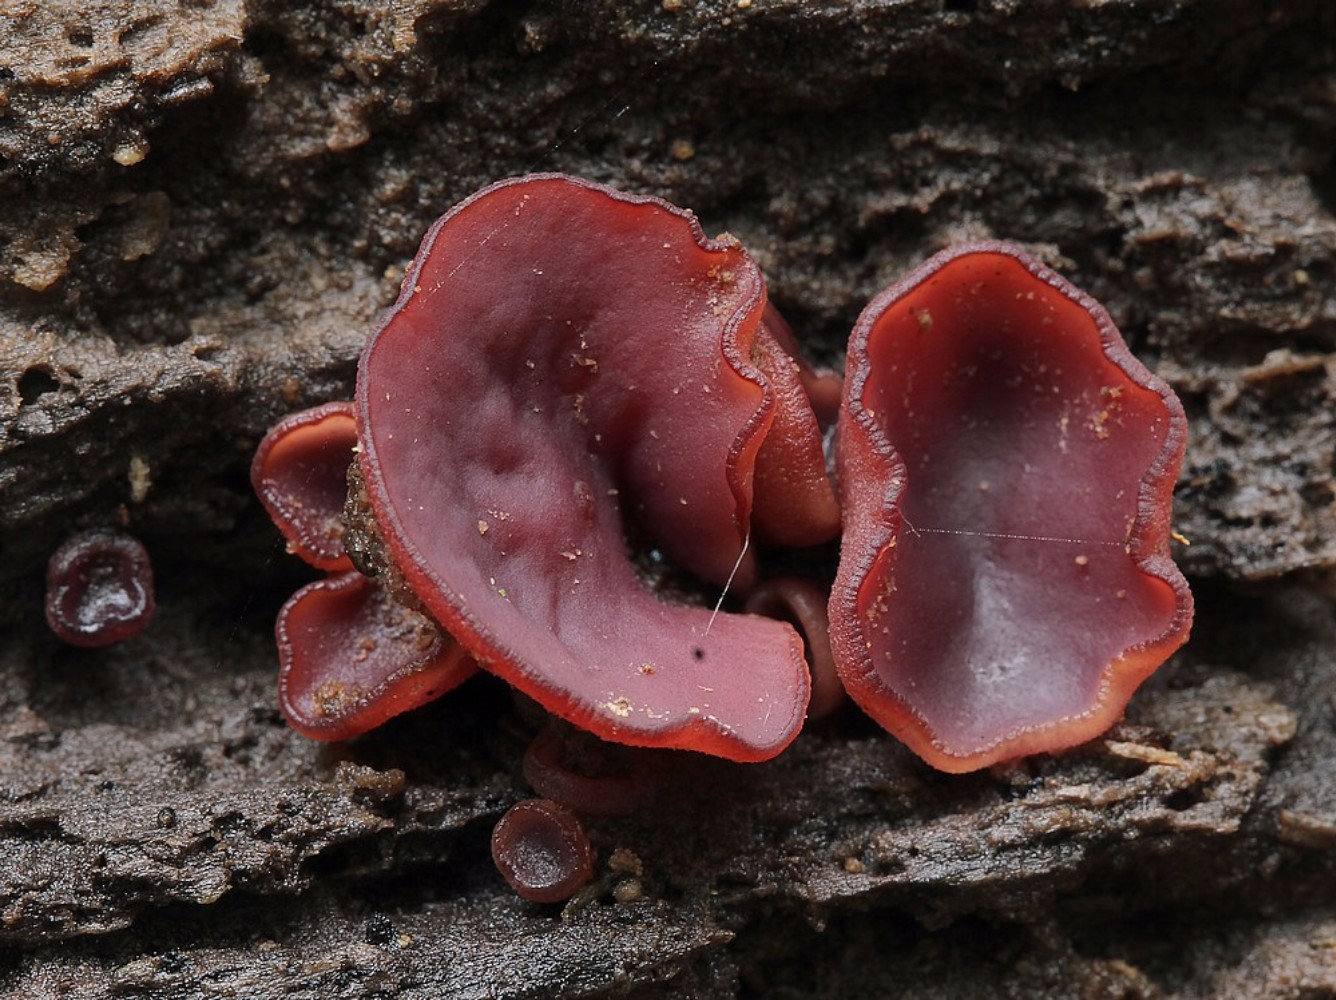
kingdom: Fungi
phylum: Ascomycota
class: Leotiomycetes
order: Helotiales
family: Gelatinodiscaceae
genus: Ascocoryne
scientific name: Ascocoryne cylichnium
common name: stor sejskive
